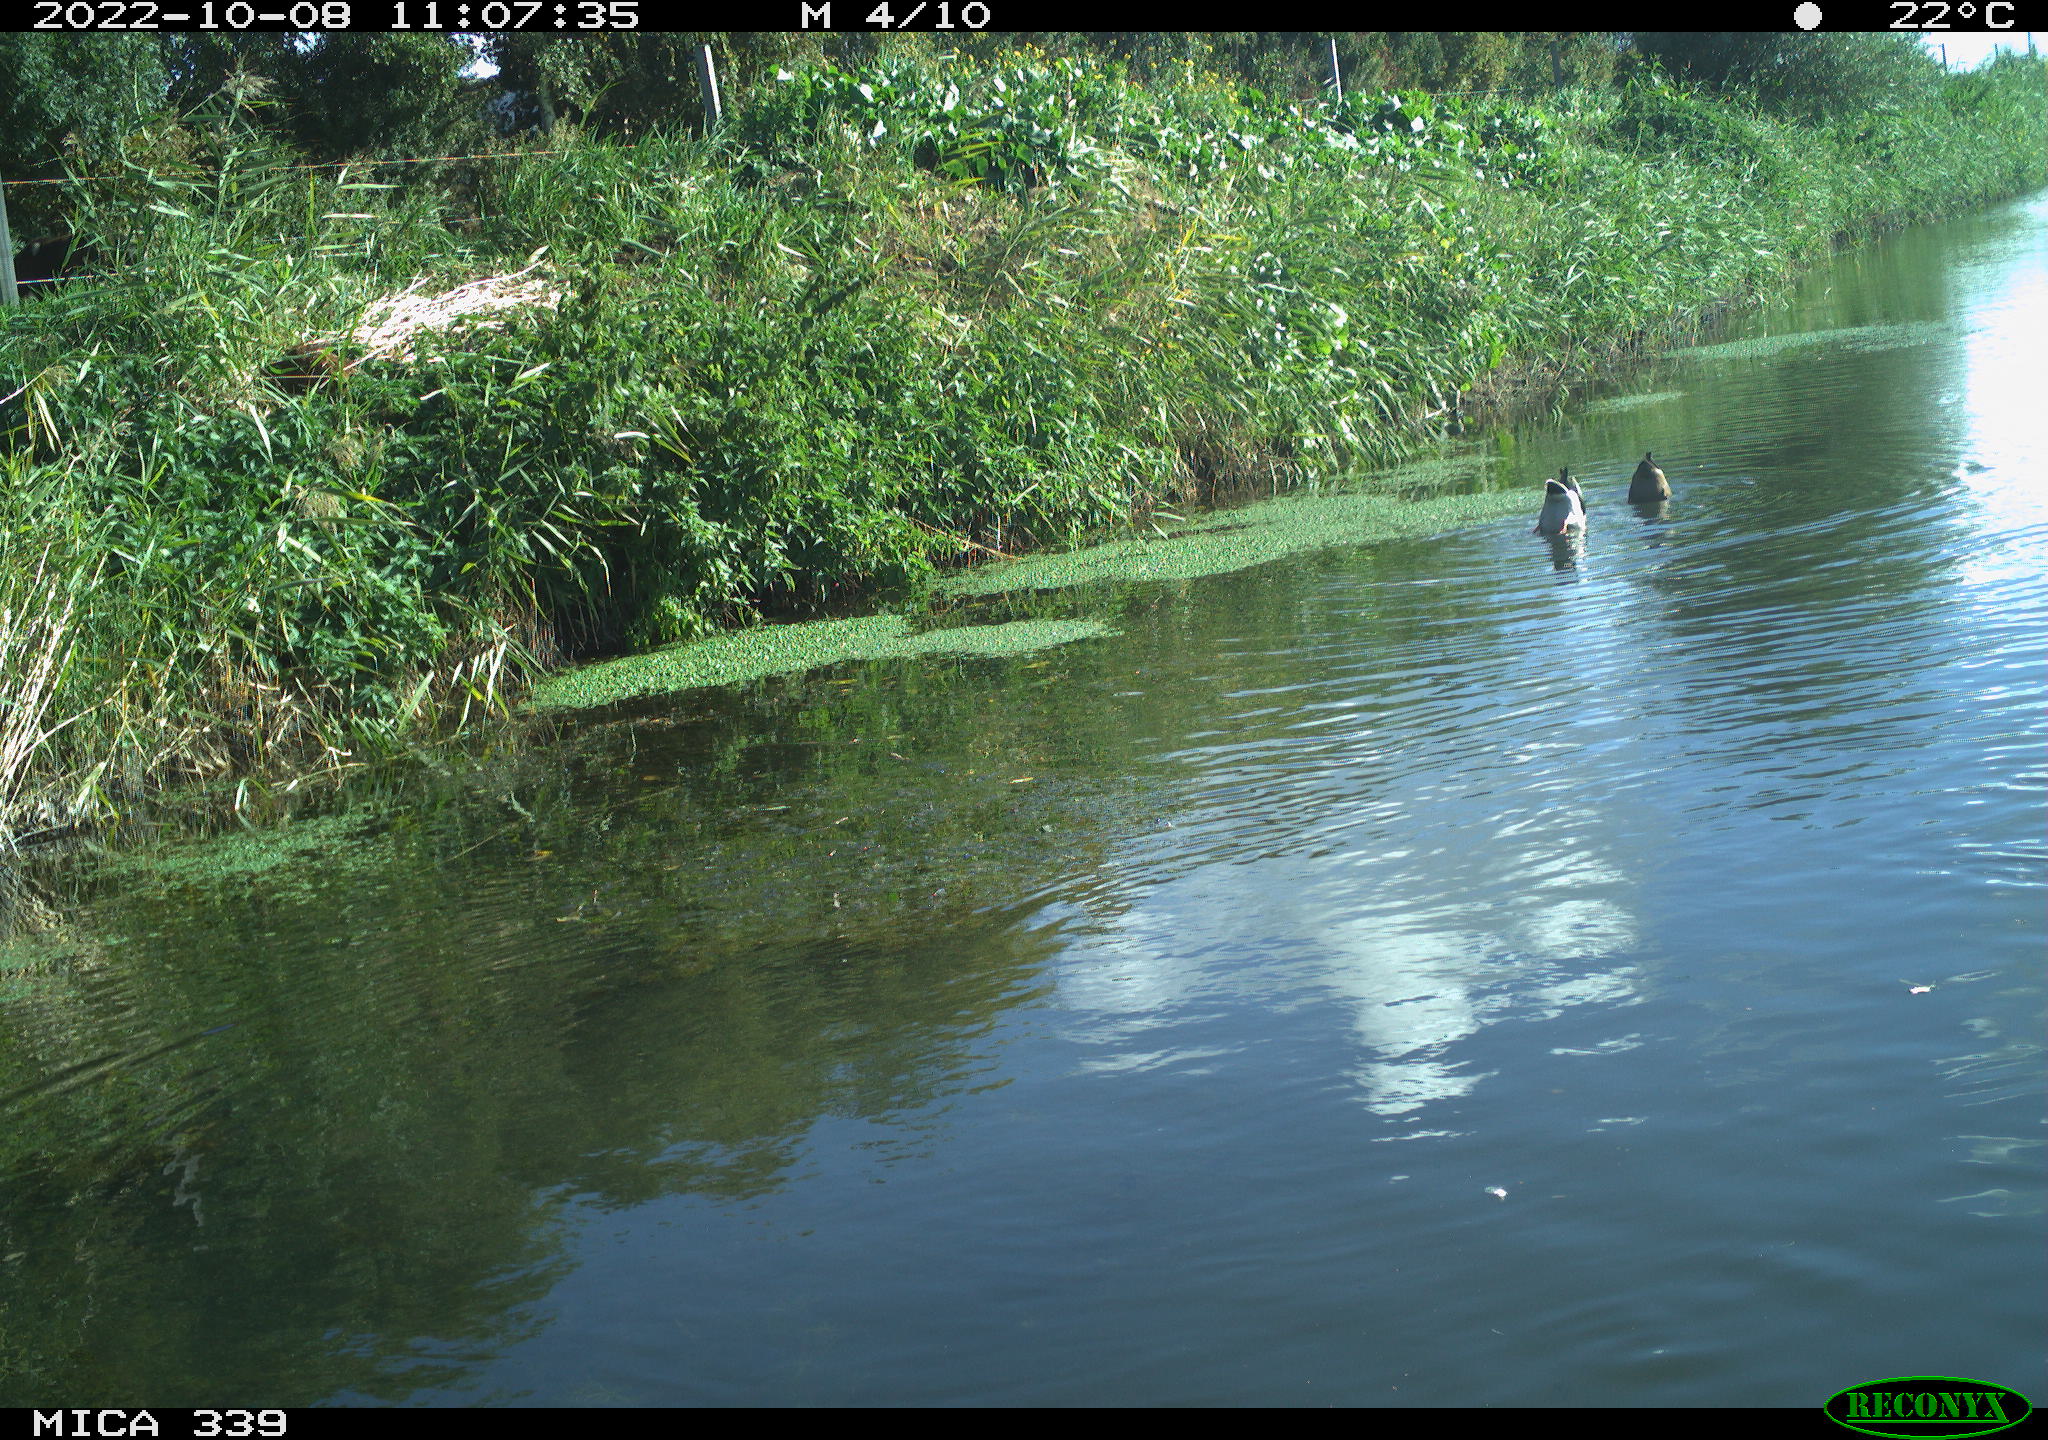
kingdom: Animalia
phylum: Chordata
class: Aves
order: Anseriformes
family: Anatidae
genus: Anas
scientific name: Anas platyrhynchos
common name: Mallard
